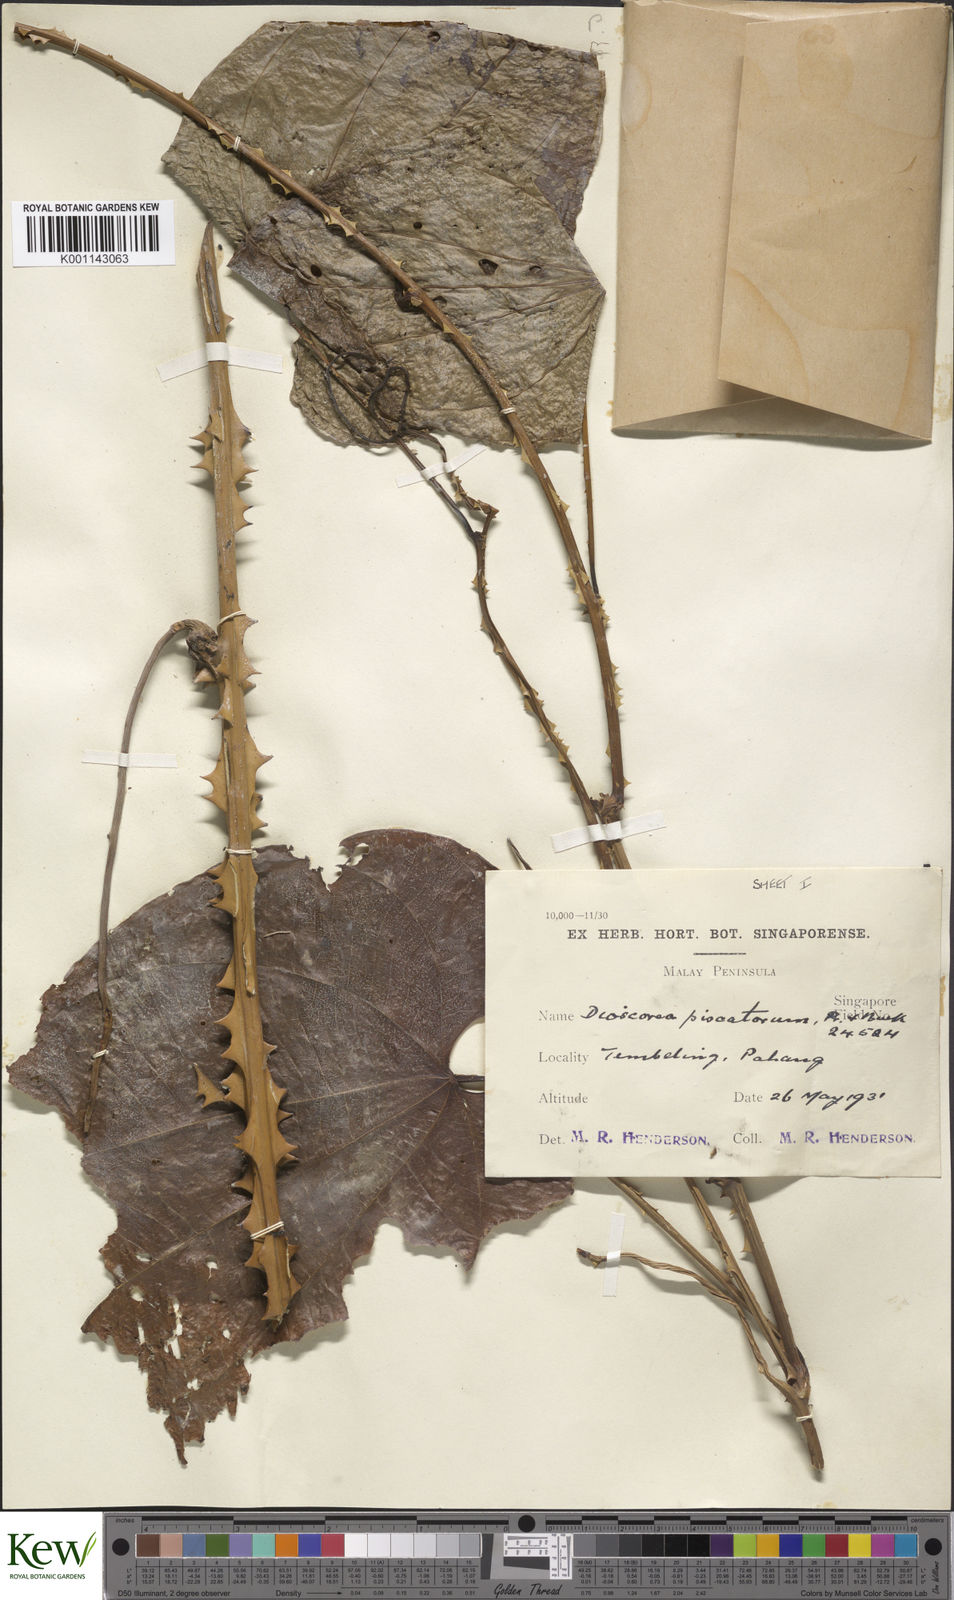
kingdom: Plantae
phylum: Tracheophyta
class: Liliopsida
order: Dioscoreales
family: Dioscoreaceae
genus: Dioscorea
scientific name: Dioscorea piscatorum
